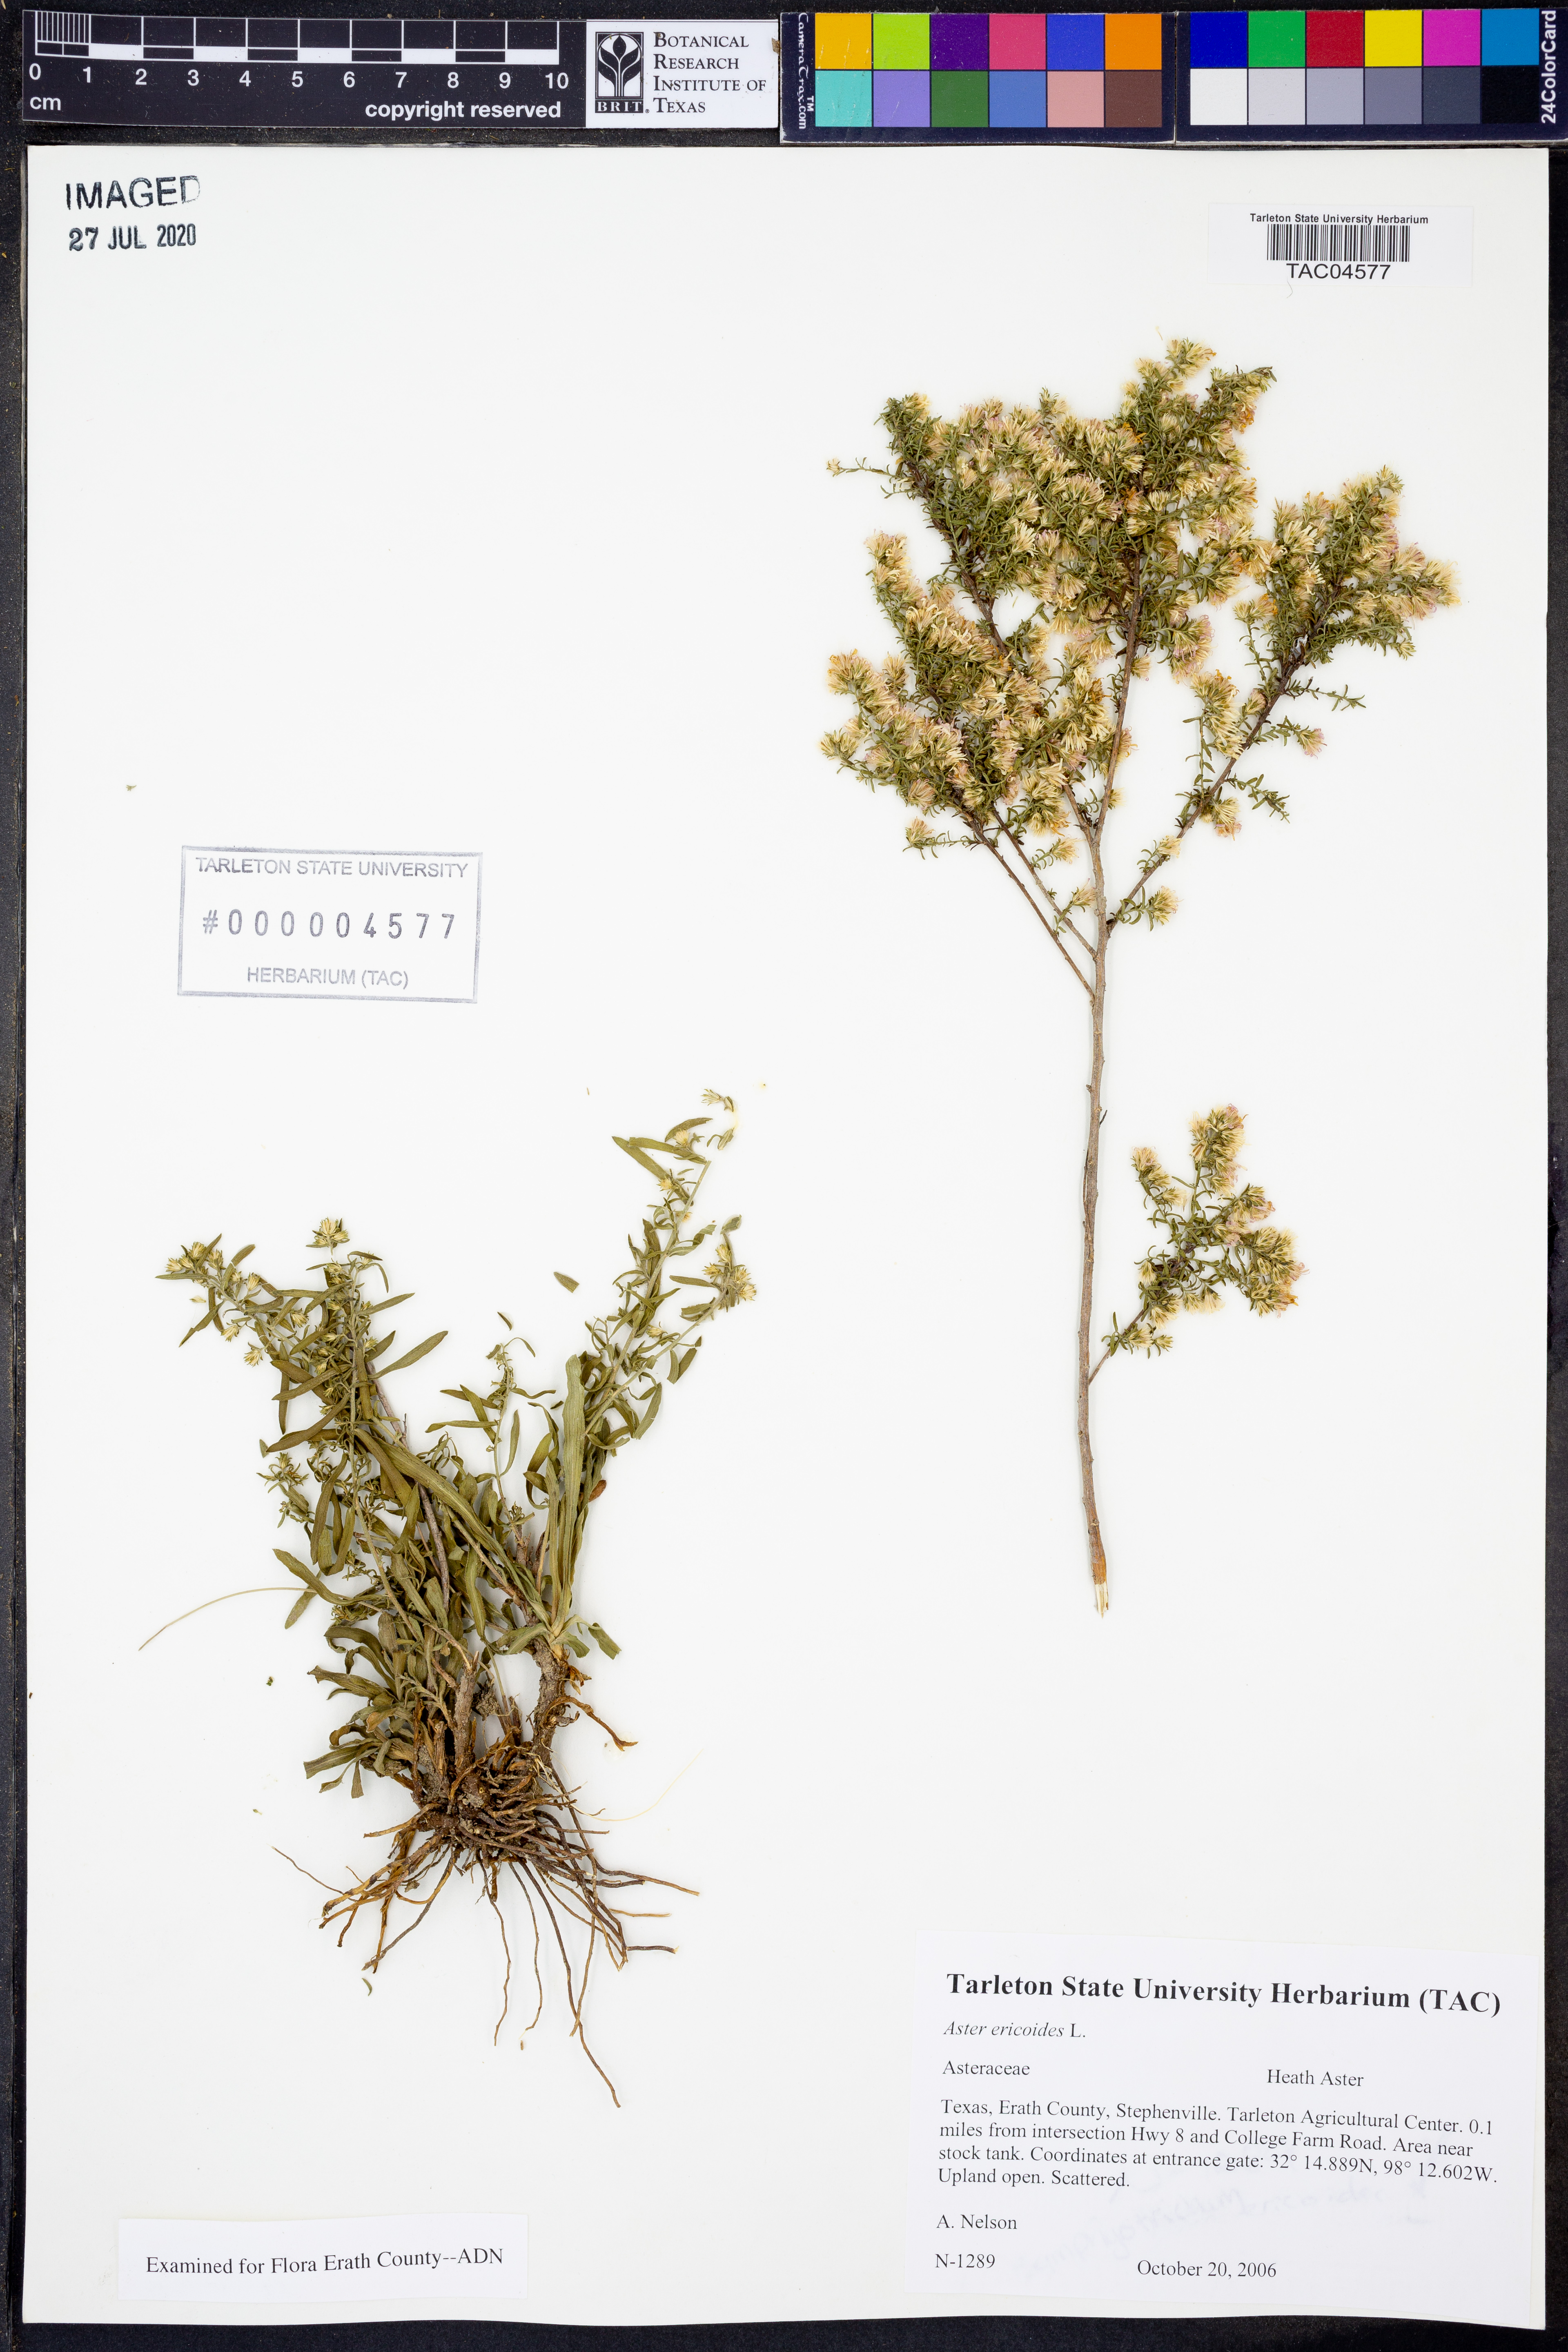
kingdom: Plantae
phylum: Tracheophyta
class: Magnoliopsida
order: Asterales
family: Asteraceae
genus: Symphyotrichum
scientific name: Symphyotrichum ericoides
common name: Heath aster
